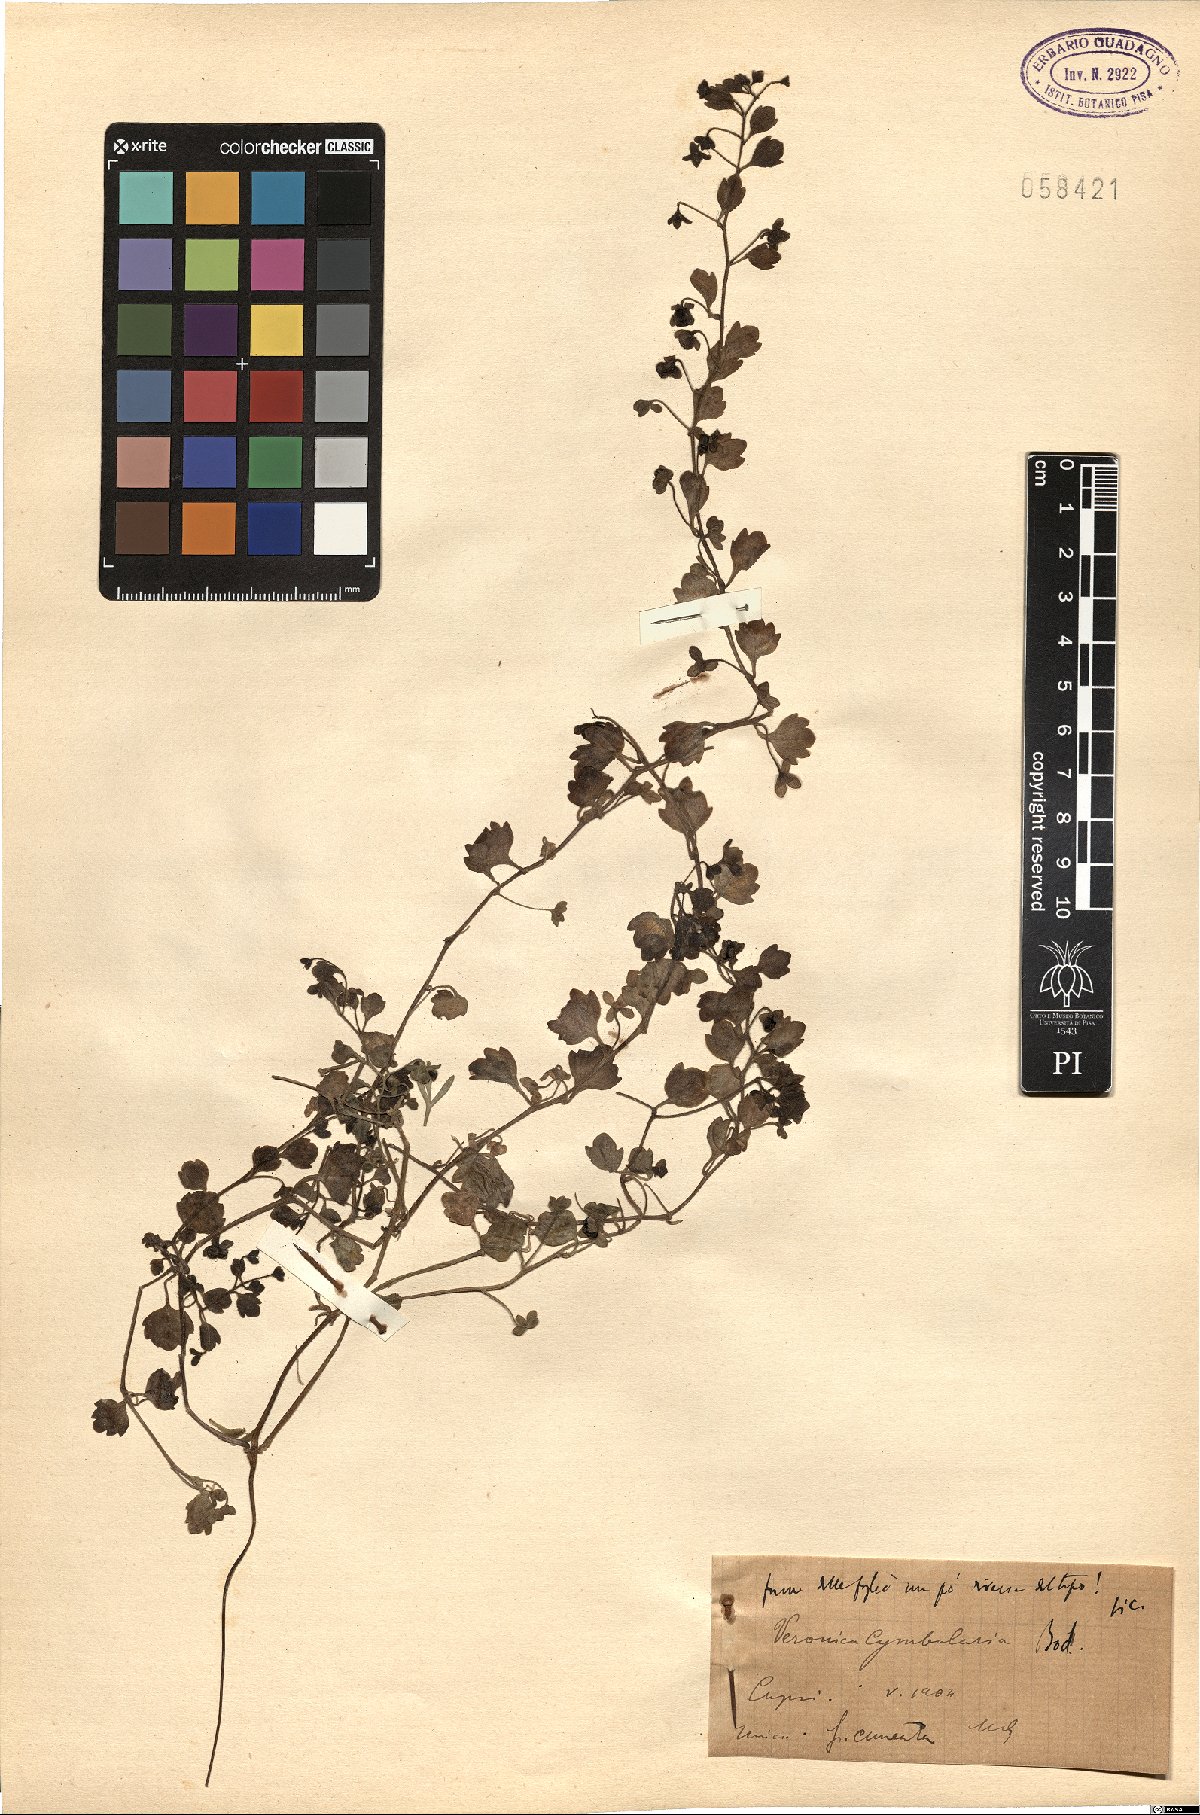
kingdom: Plantae
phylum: Tracheophyta
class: Magnoliopsida
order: Lamiales
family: Plantaginaceae
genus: Veronica
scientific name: Veronica cymbalaria
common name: Pale speedwell
